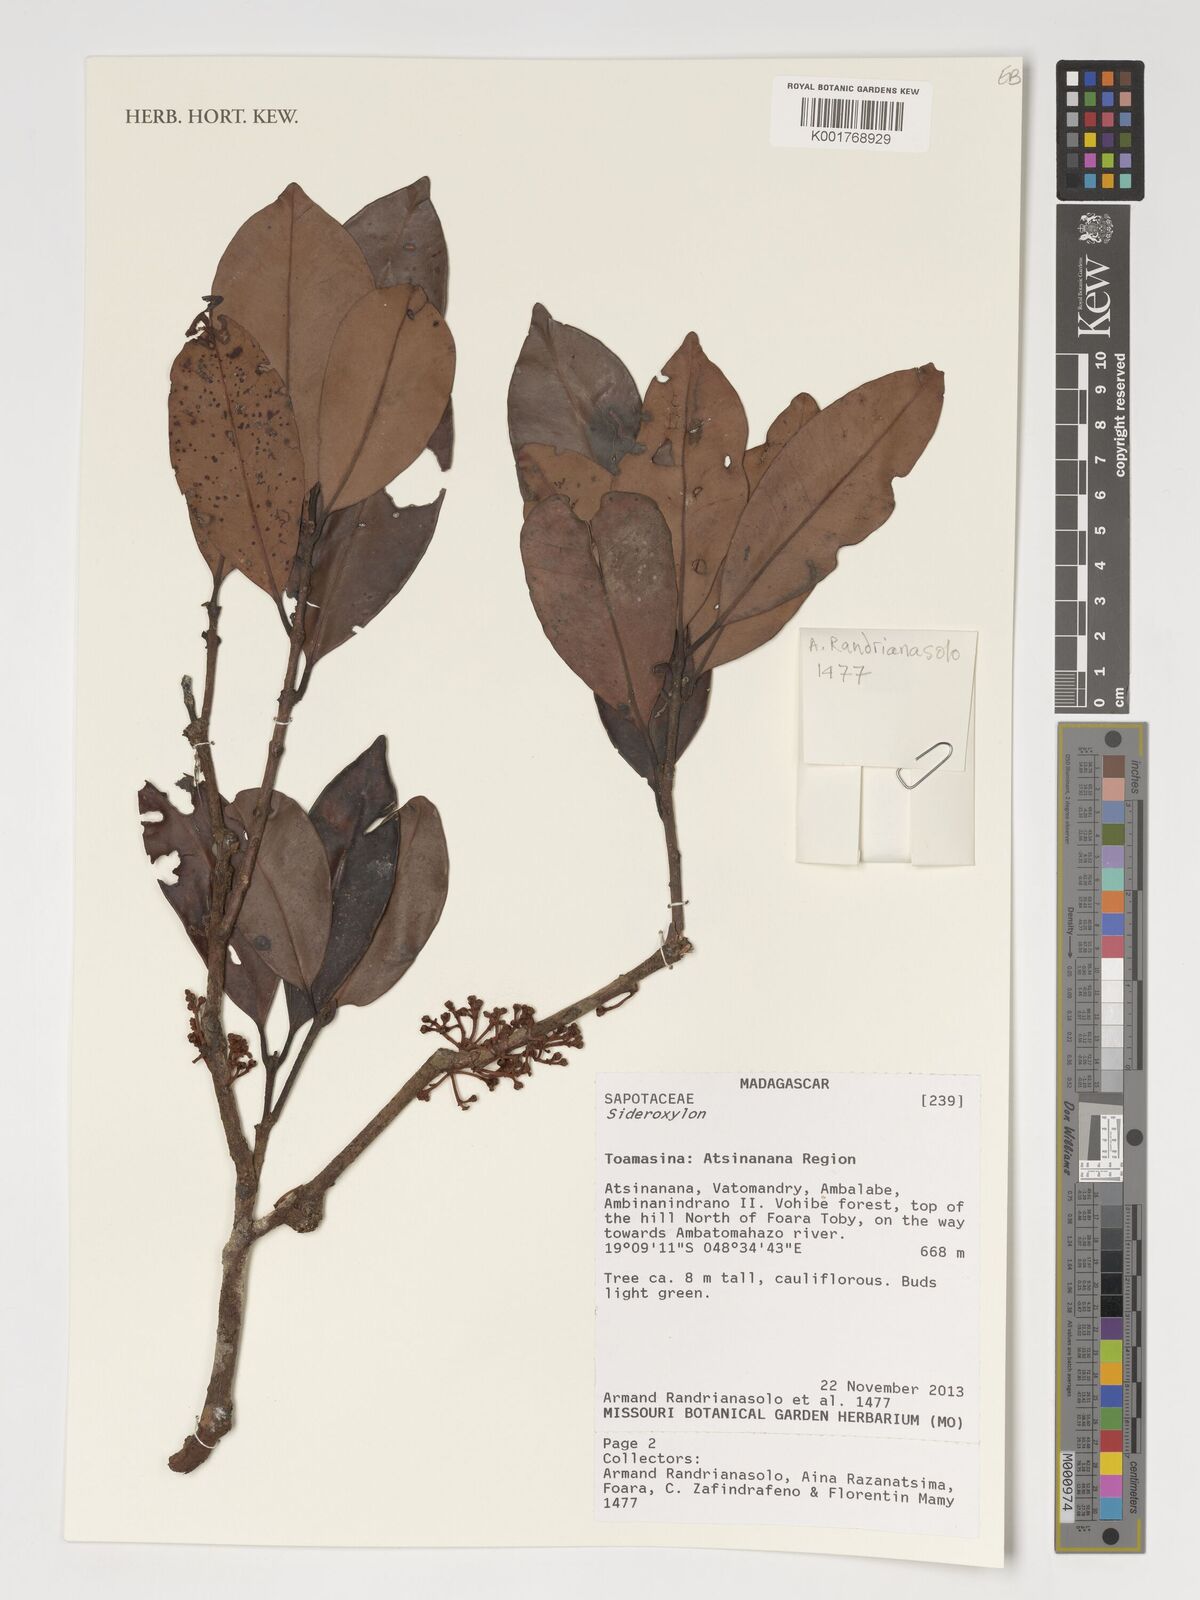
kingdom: Plantae
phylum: Tracheophyta
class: Magnoliopsida
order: Ericales
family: Sapotaceae
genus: Sideroxylon
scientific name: Sideroxylon
